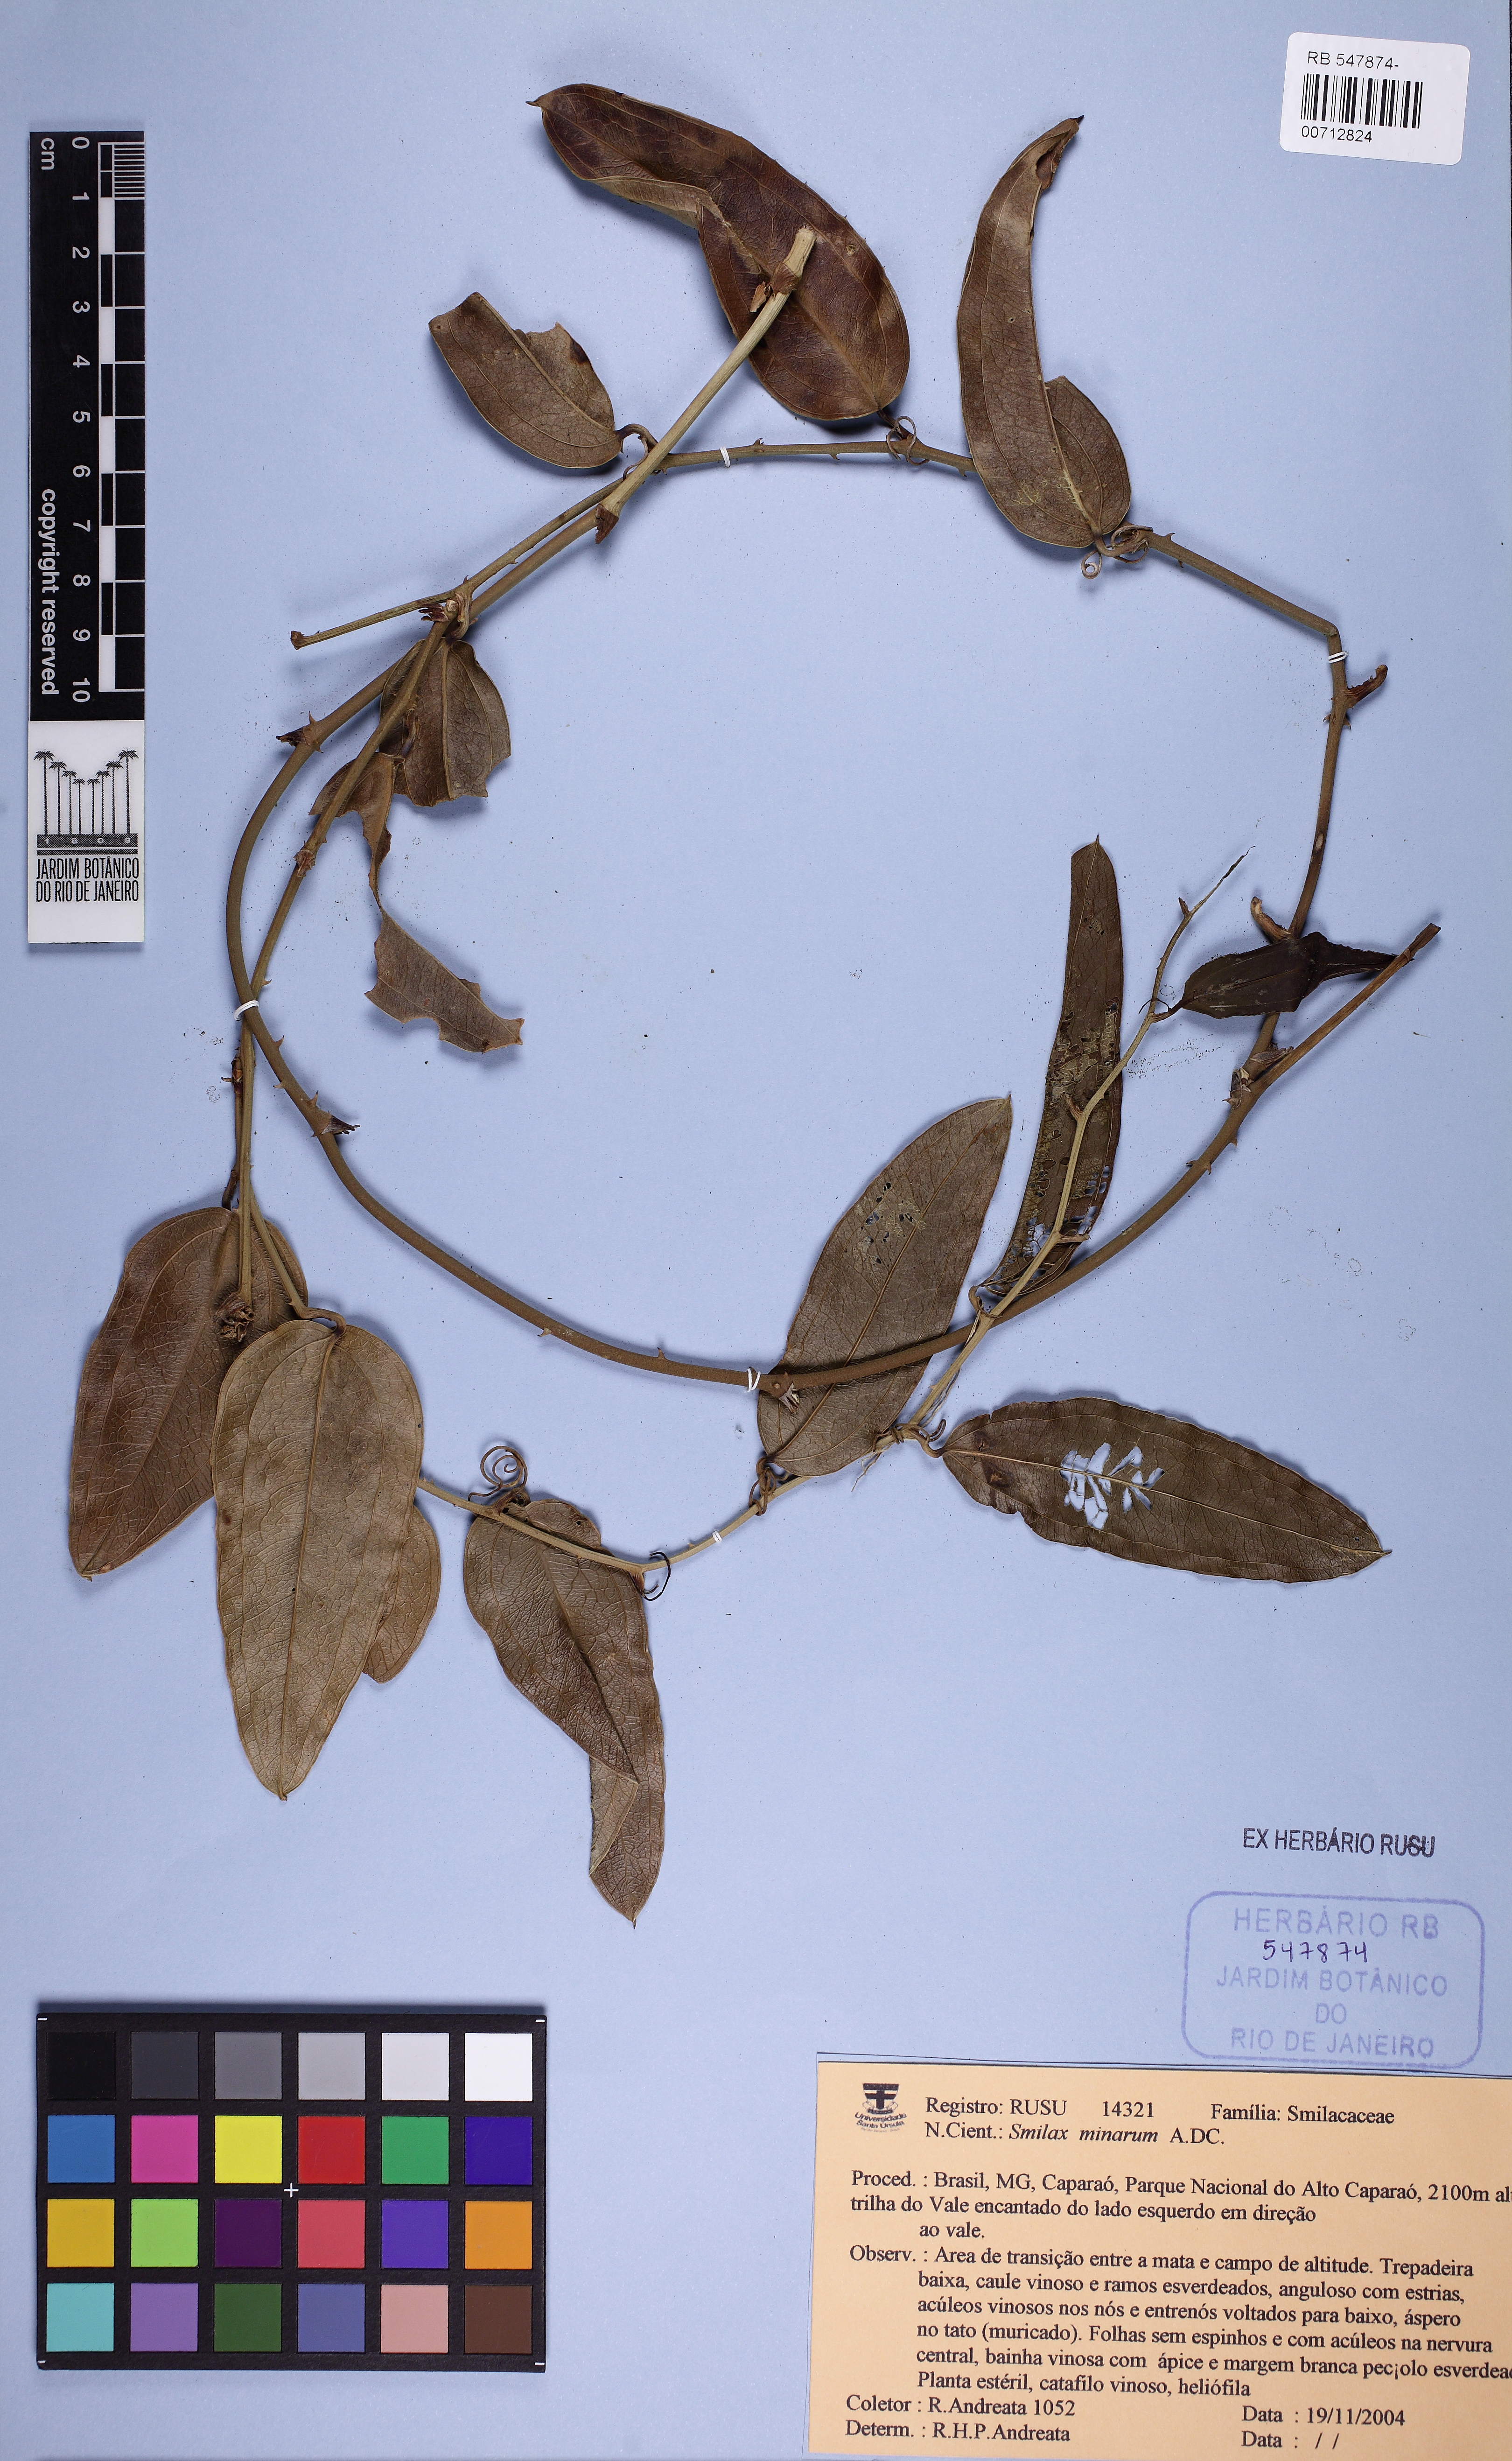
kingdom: Plantae
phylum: Tracheophyta
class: Liliopsida
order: Liliales
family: Smilacaceae
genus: Smilax
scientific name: Smilax minarum
